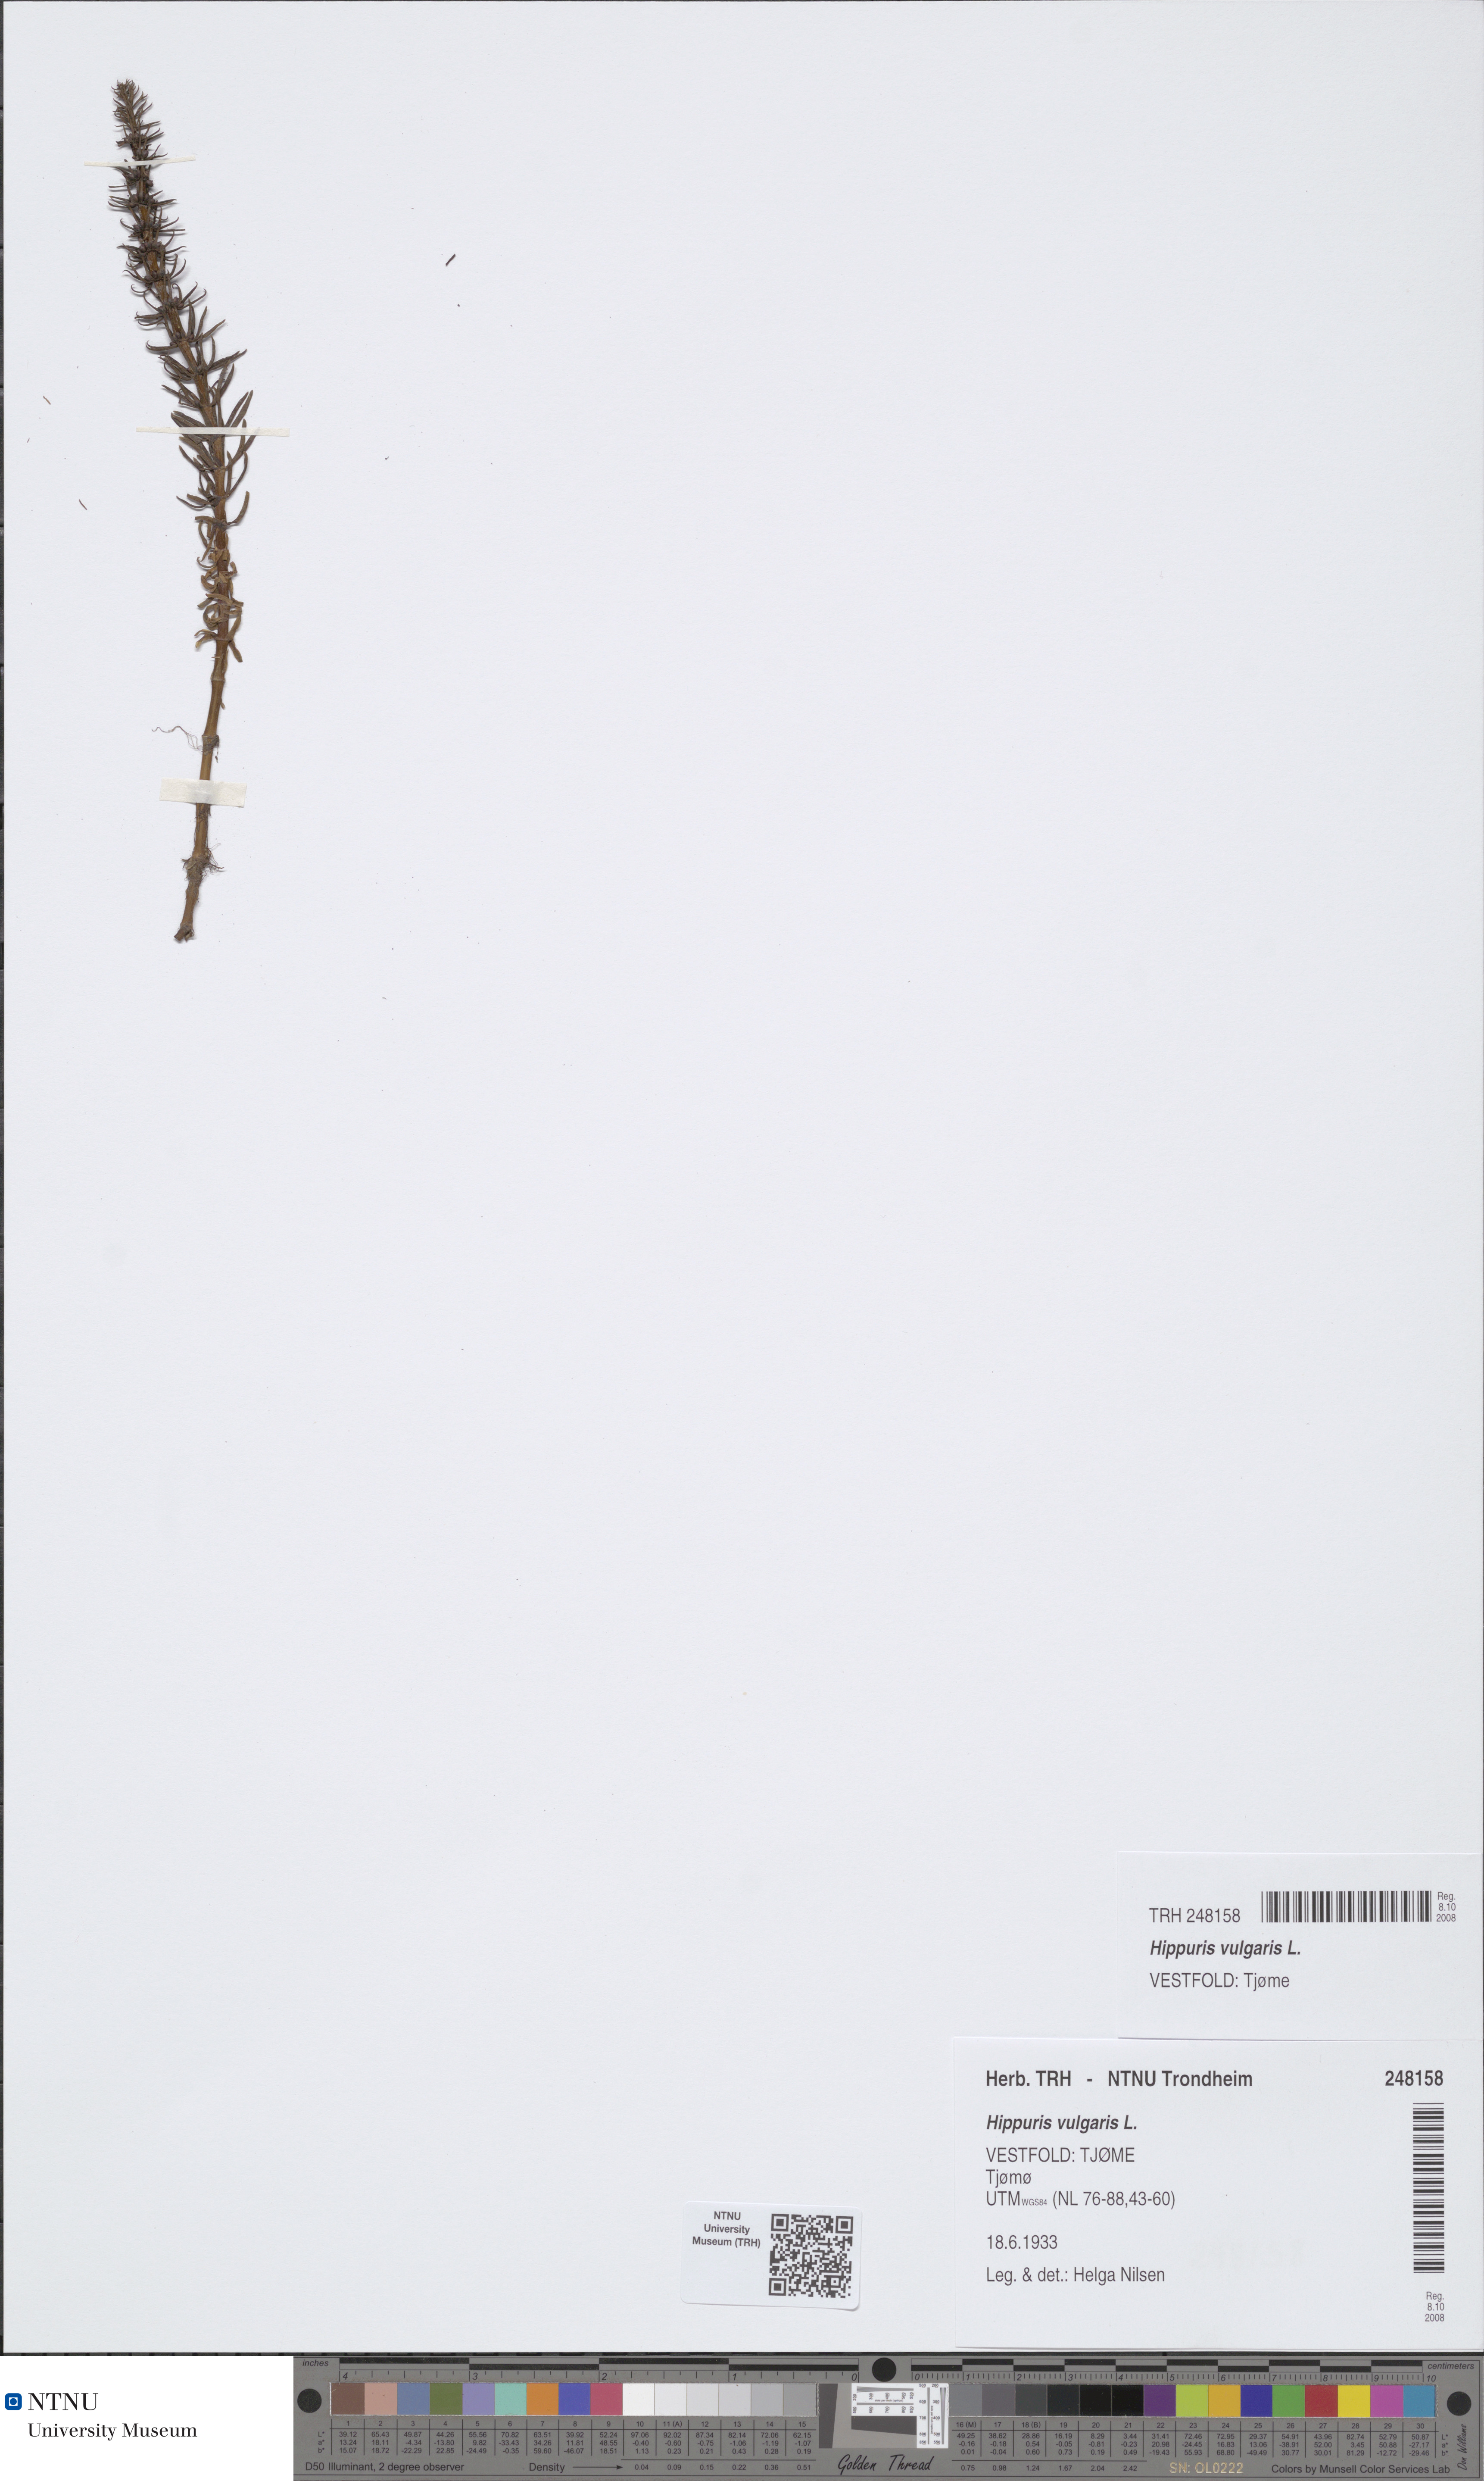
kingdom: Plantae
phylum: Tracheophyta
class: Magnoliopsida
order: Lamiales
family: Plantaginaceae
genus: Hippuris
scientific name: Hippuris vulgaris
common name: Mare's-tail
